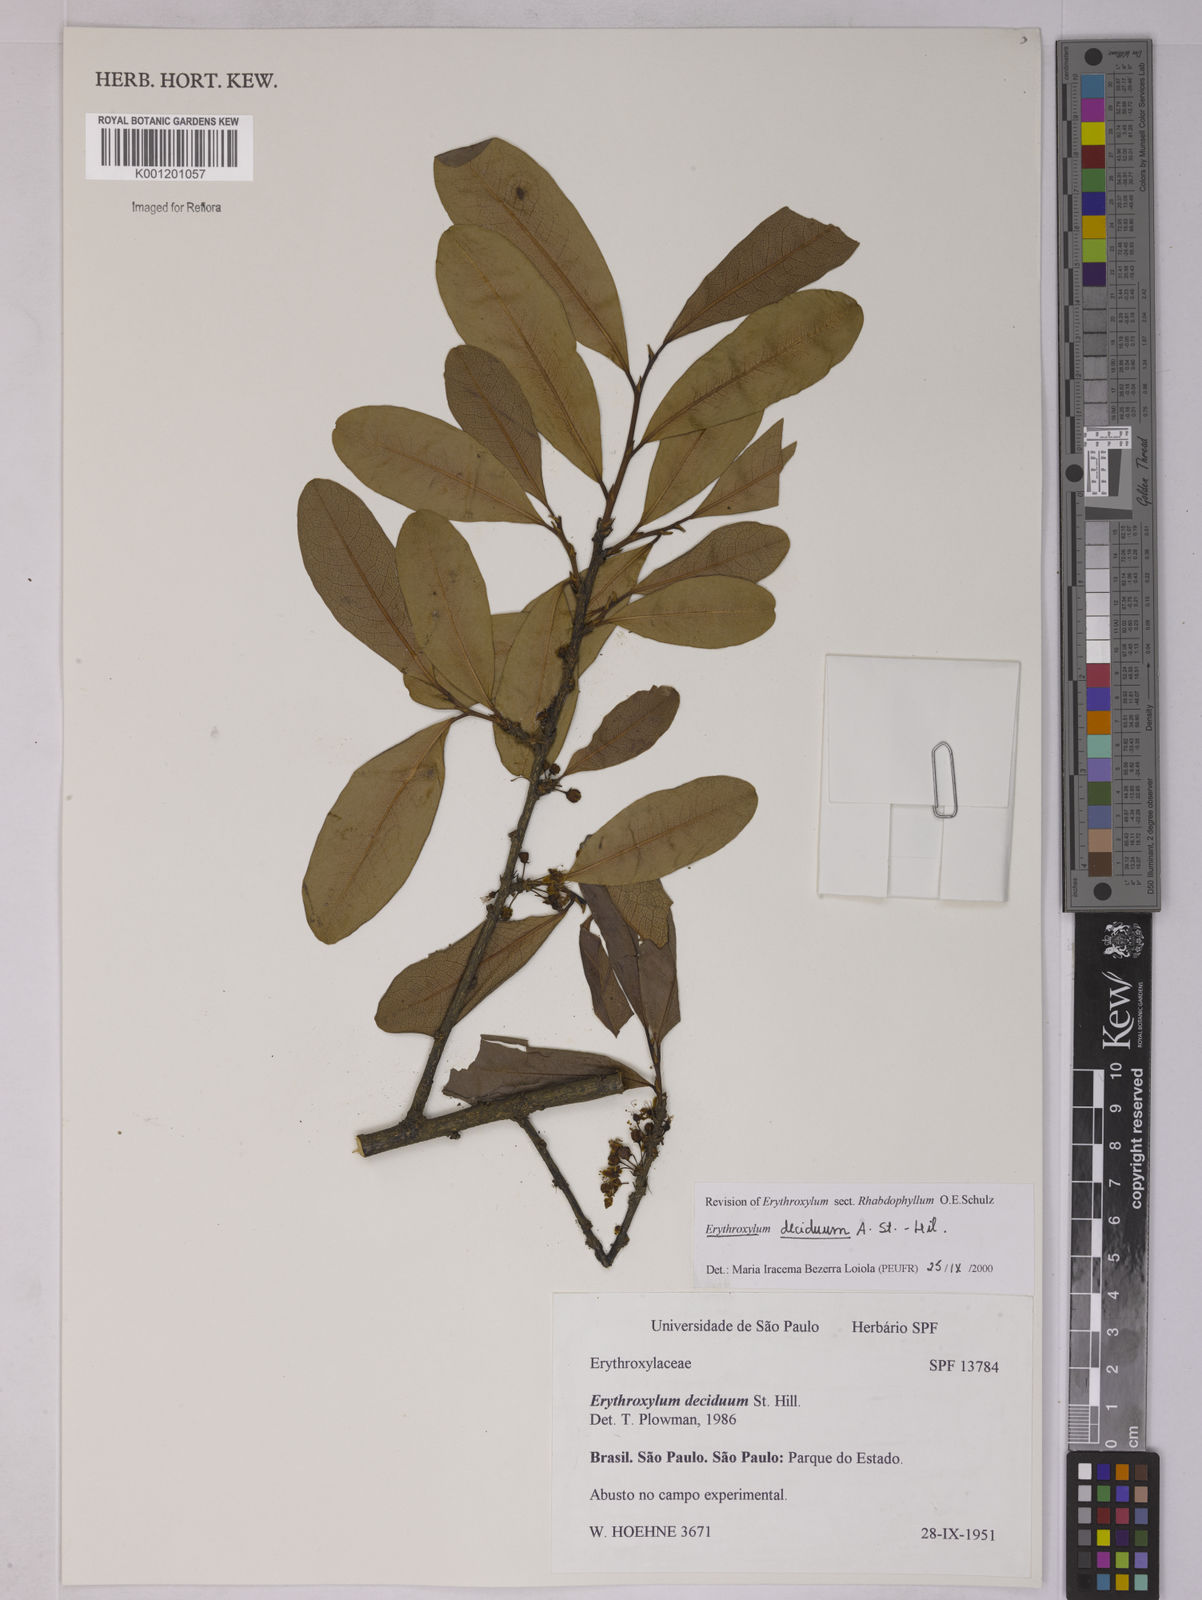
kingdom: Plantae
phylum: Tracheophyta
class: Magnoliopsida
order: Malpighiales
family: Erythroxylaceae
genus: Erythroxylum
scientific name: Erythroxylum deciduum
